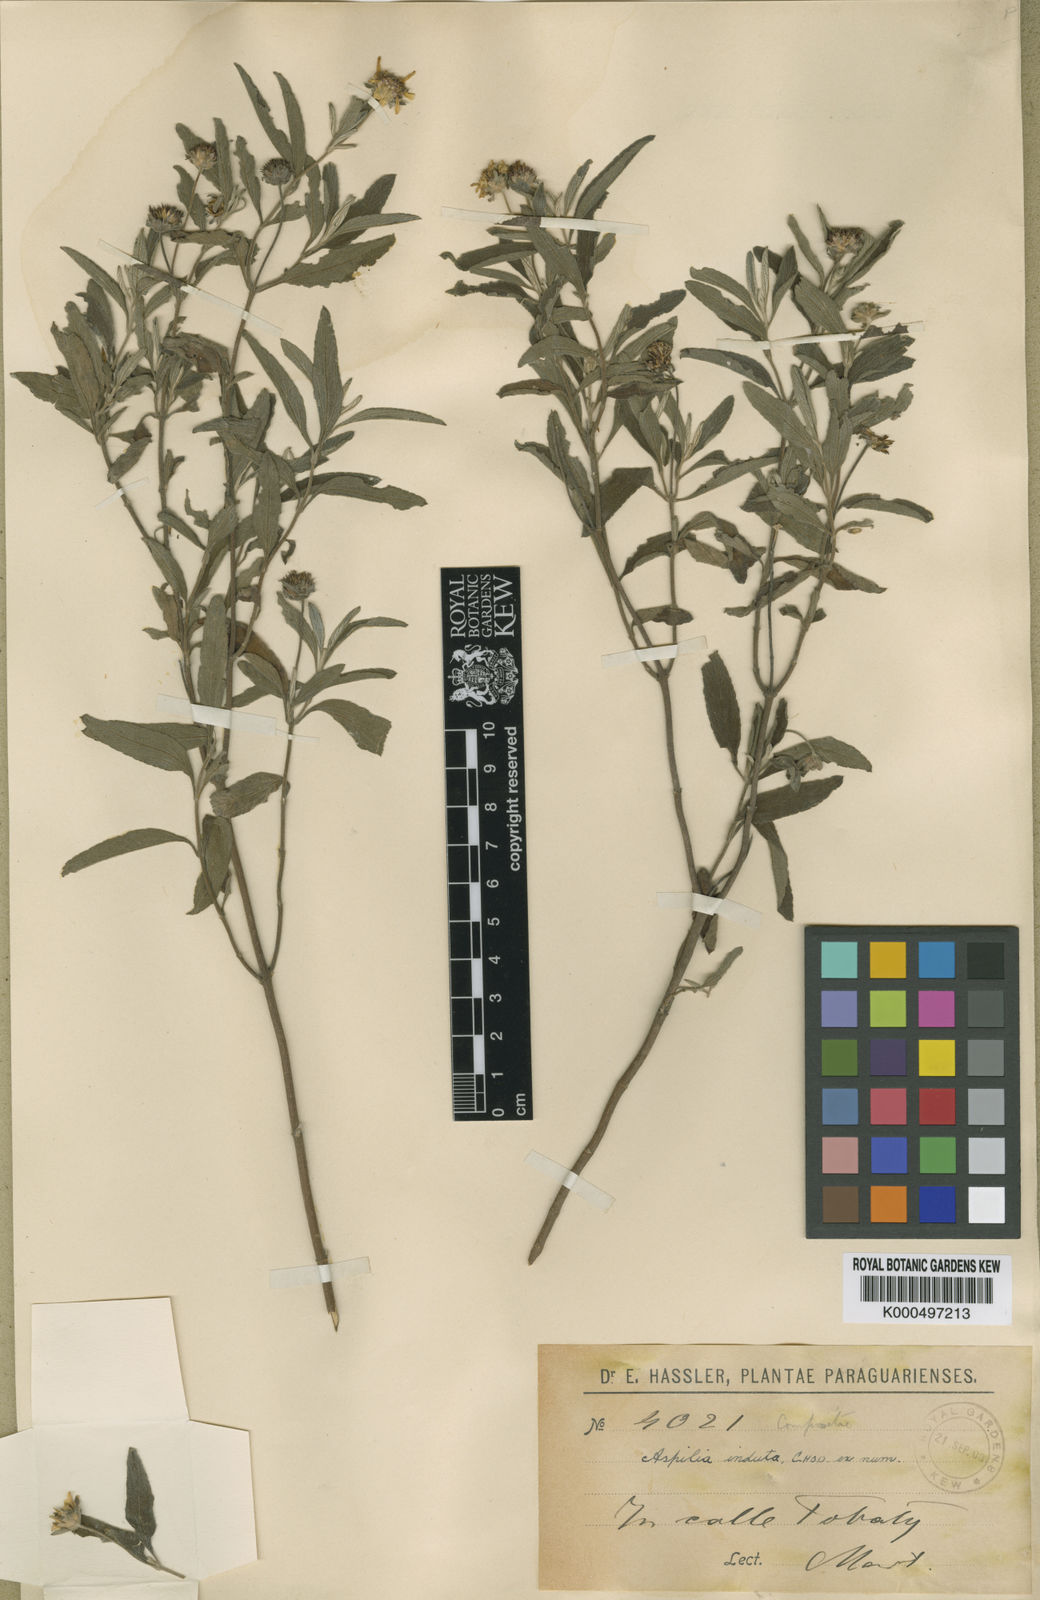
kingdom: Plantae
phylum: Tracheophyta
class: Magnoliopsida
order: Asterales
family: Asteraceae
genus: Dimerostemma
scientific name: Dimerostemma indutum
